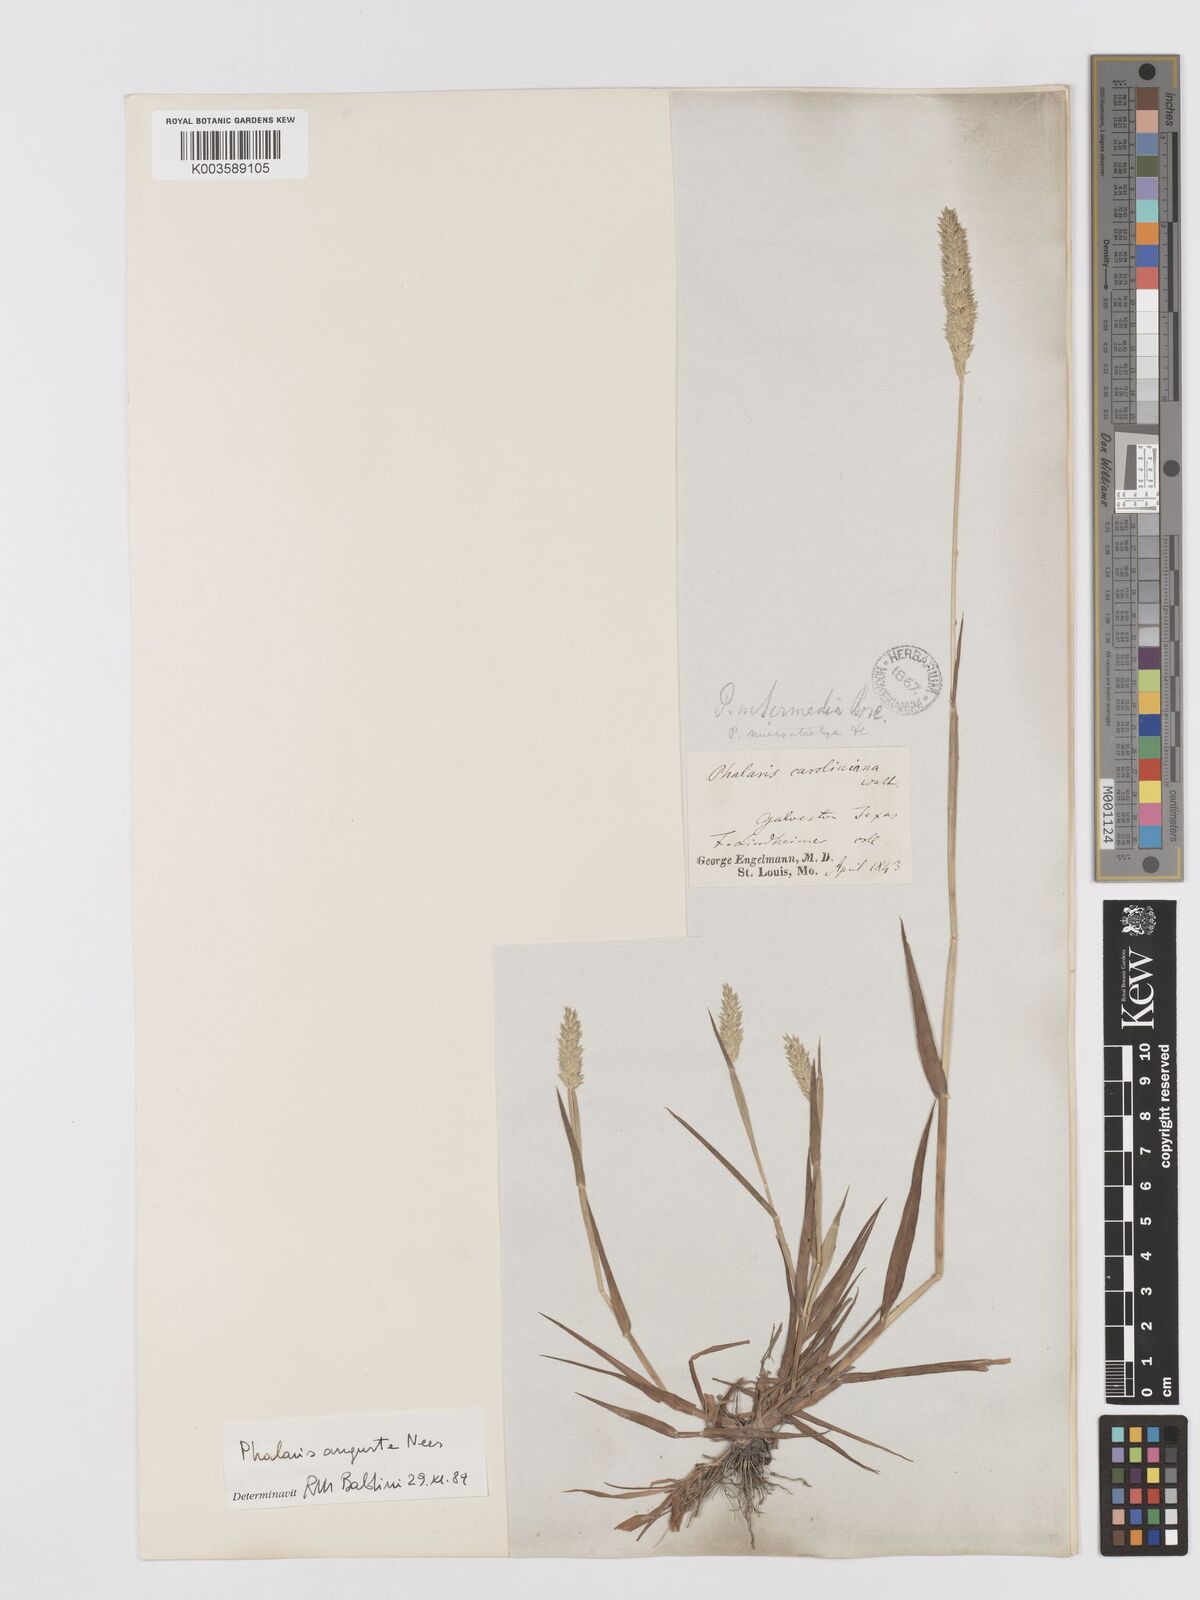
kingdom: Plantae
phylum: Tracheophyta
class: Liliopsida
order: Poales
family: Poaceae
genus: Phalaris
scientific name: Phalaris
